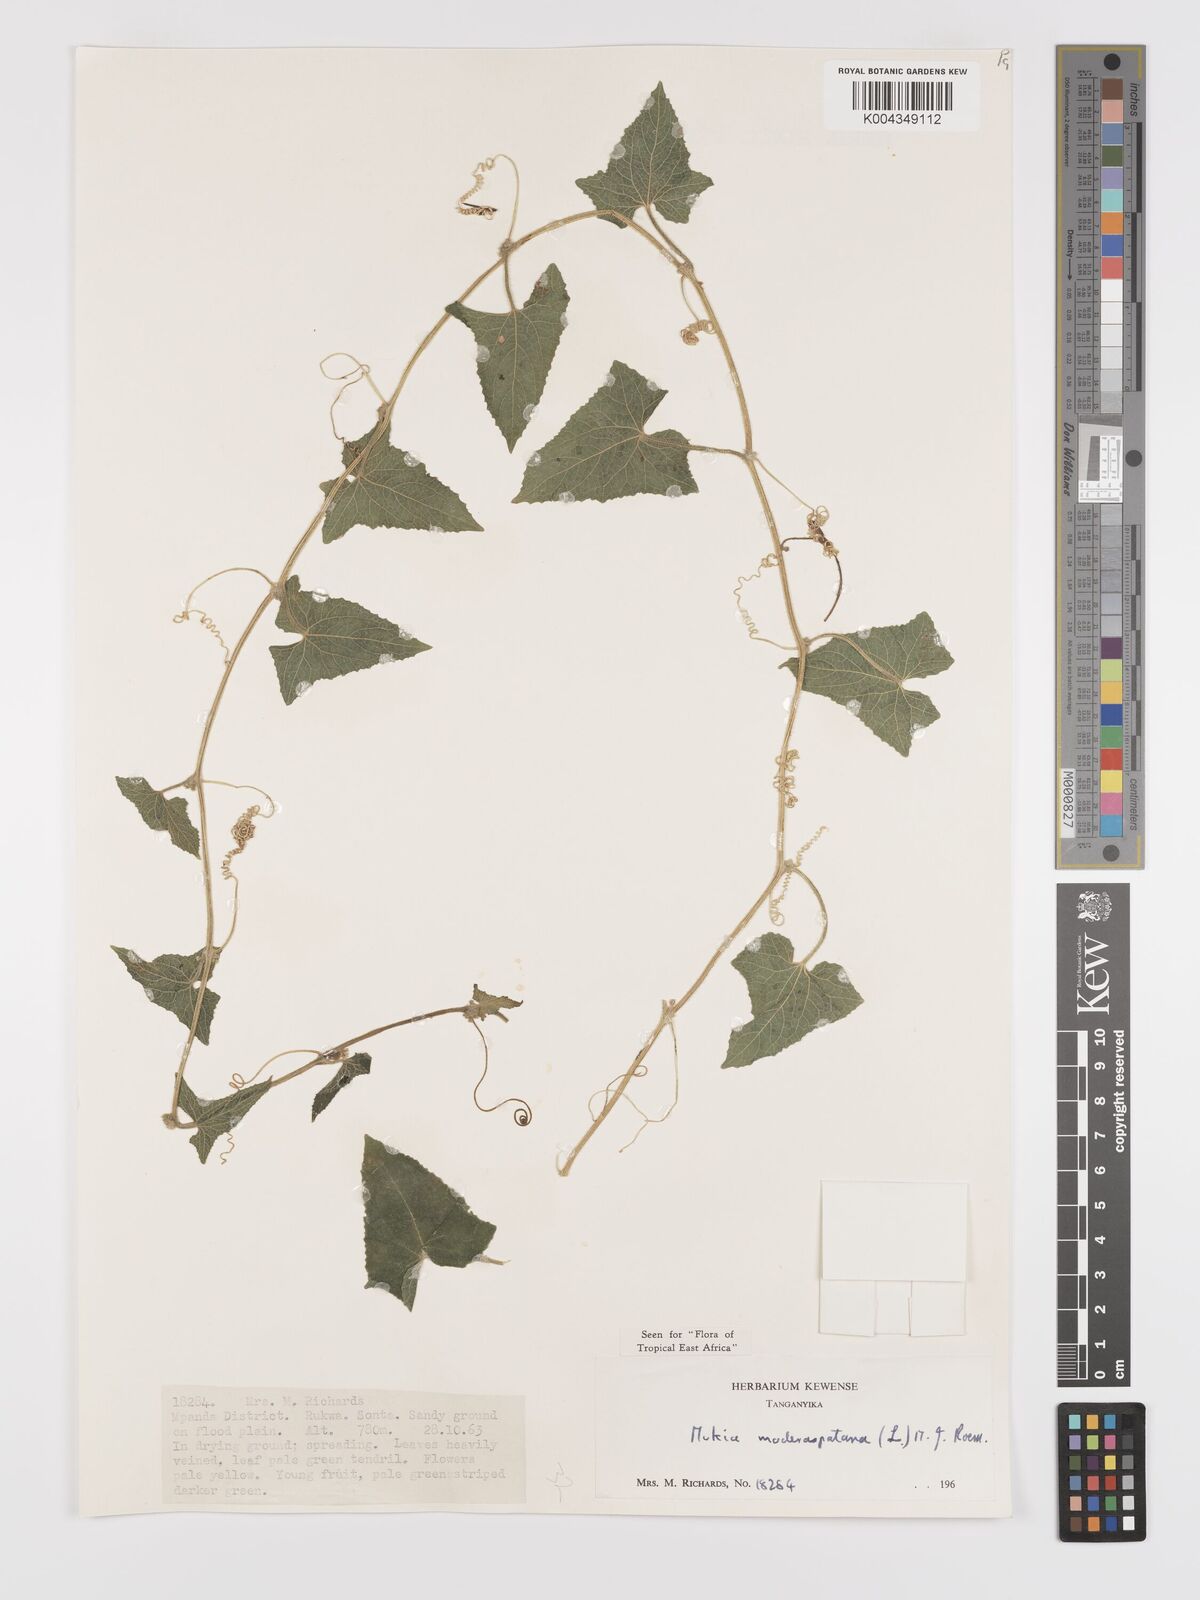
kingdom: Plantae
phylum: Tracheophyta
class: Magnoliopsida
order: Cucurbitales
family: Cucurbitaceae
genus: Cucumis
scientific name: Cucumis maderaspatanus
